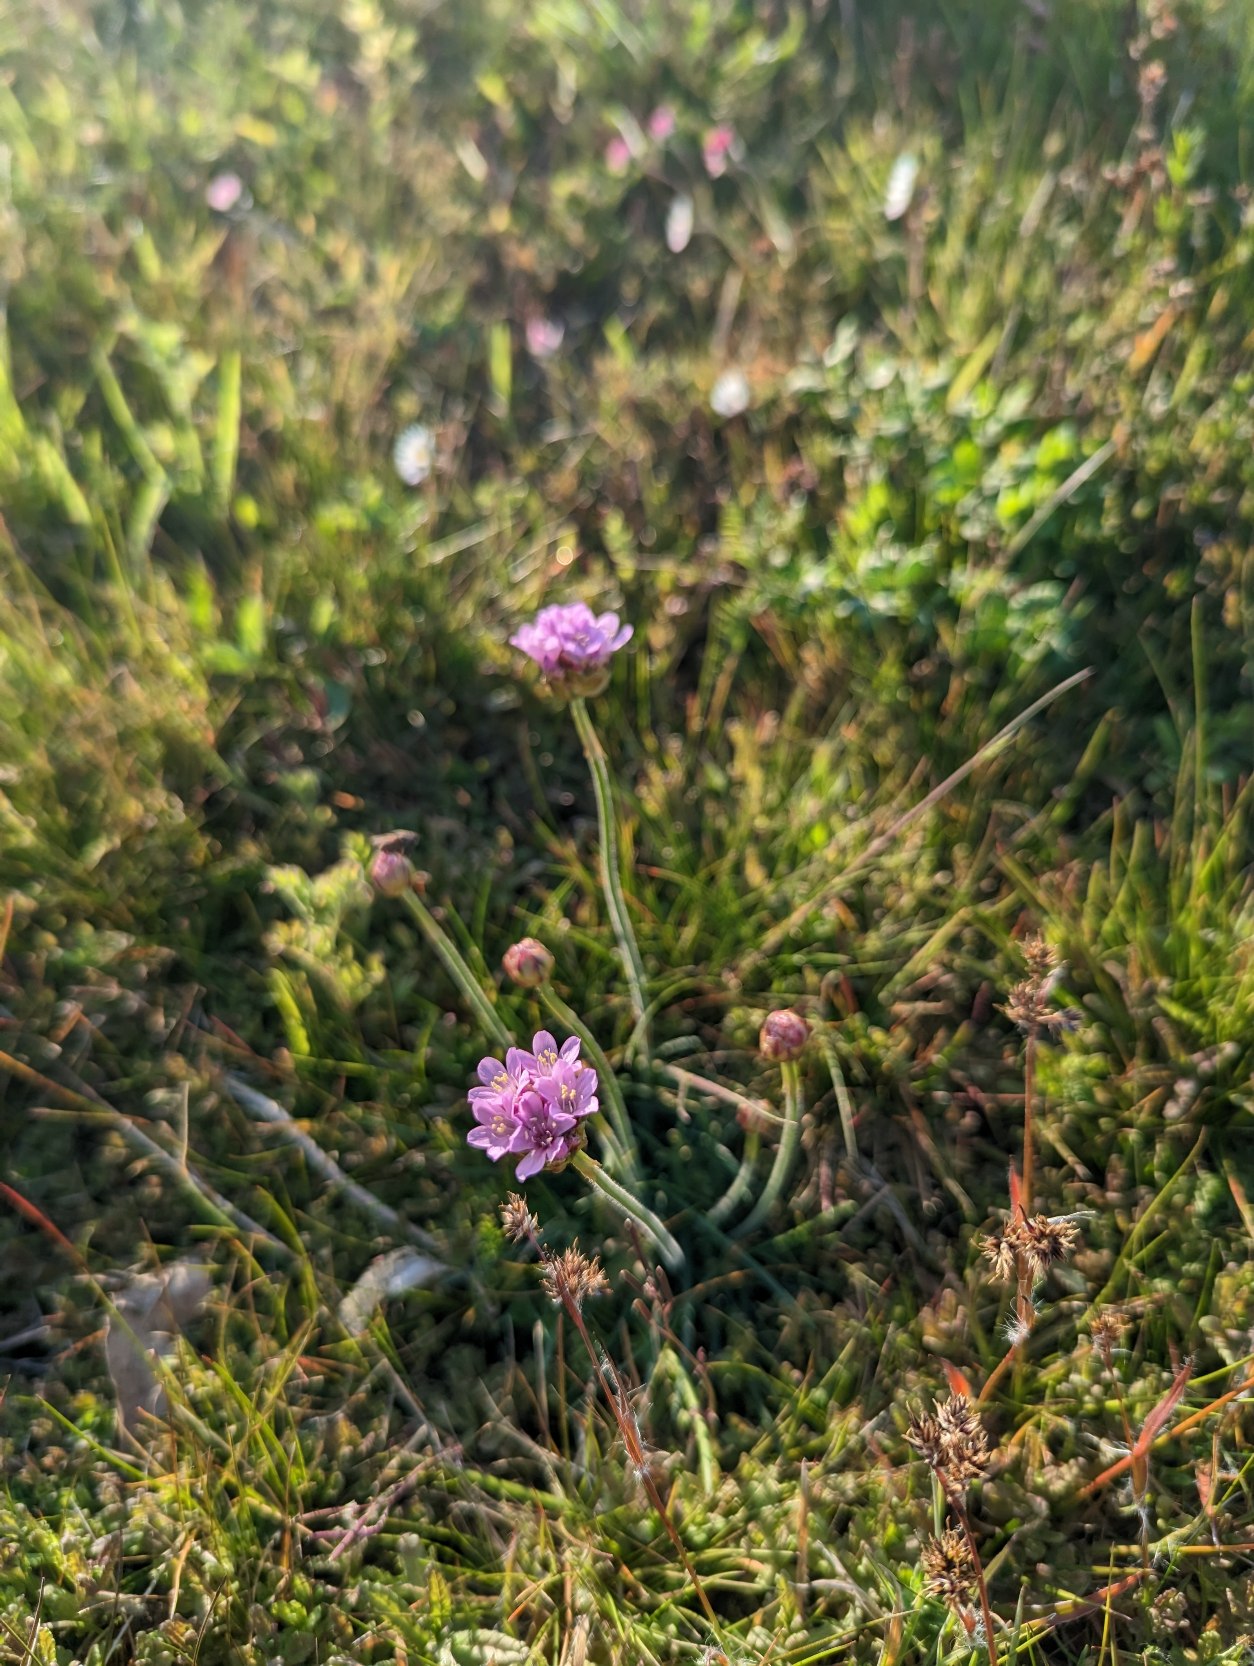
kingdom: Plantae
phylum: Tracheophyta
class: Magnoliopsida
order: Caryophyllales
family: Plumbaginaceae
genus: Armeria
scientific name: Armeria maritima
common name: Engelskgræs
